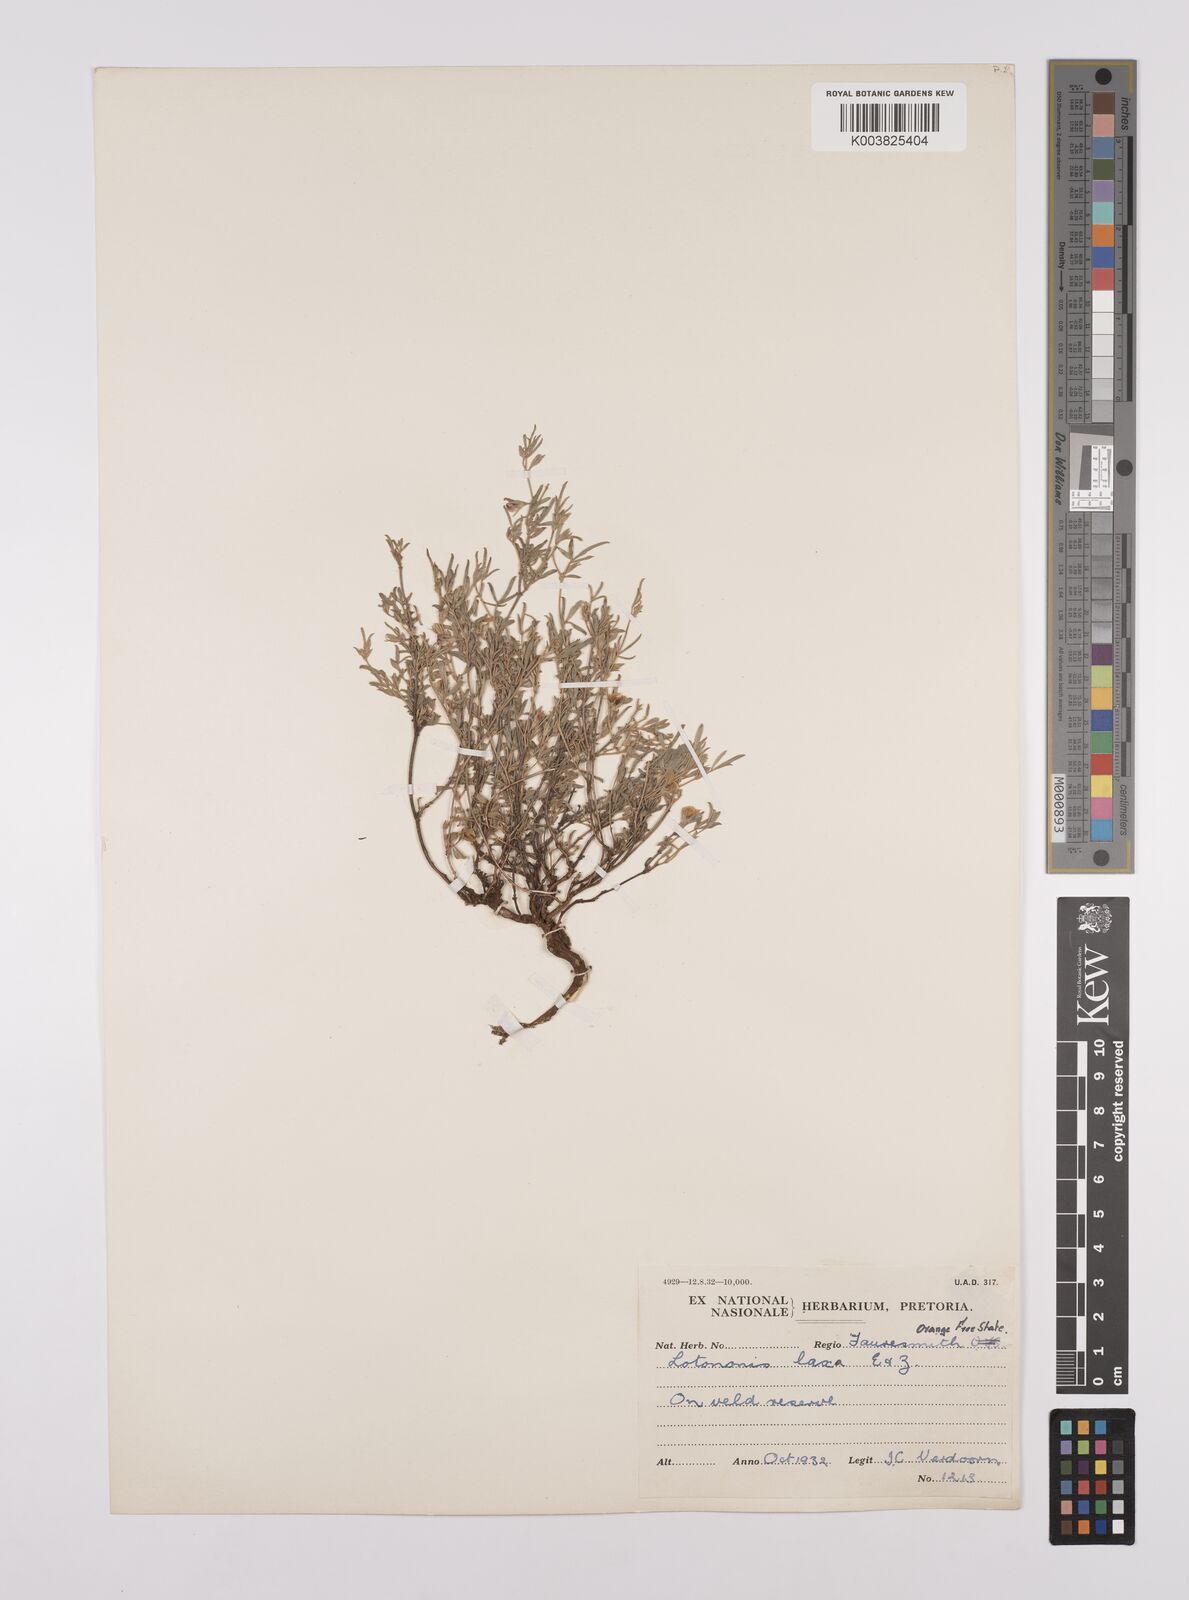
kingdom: Plantae
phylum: Tracheophyta
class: Magnoliopsida
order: Fabales
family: Fabaceae
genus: Lotononis
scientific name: Lotononis laxa
